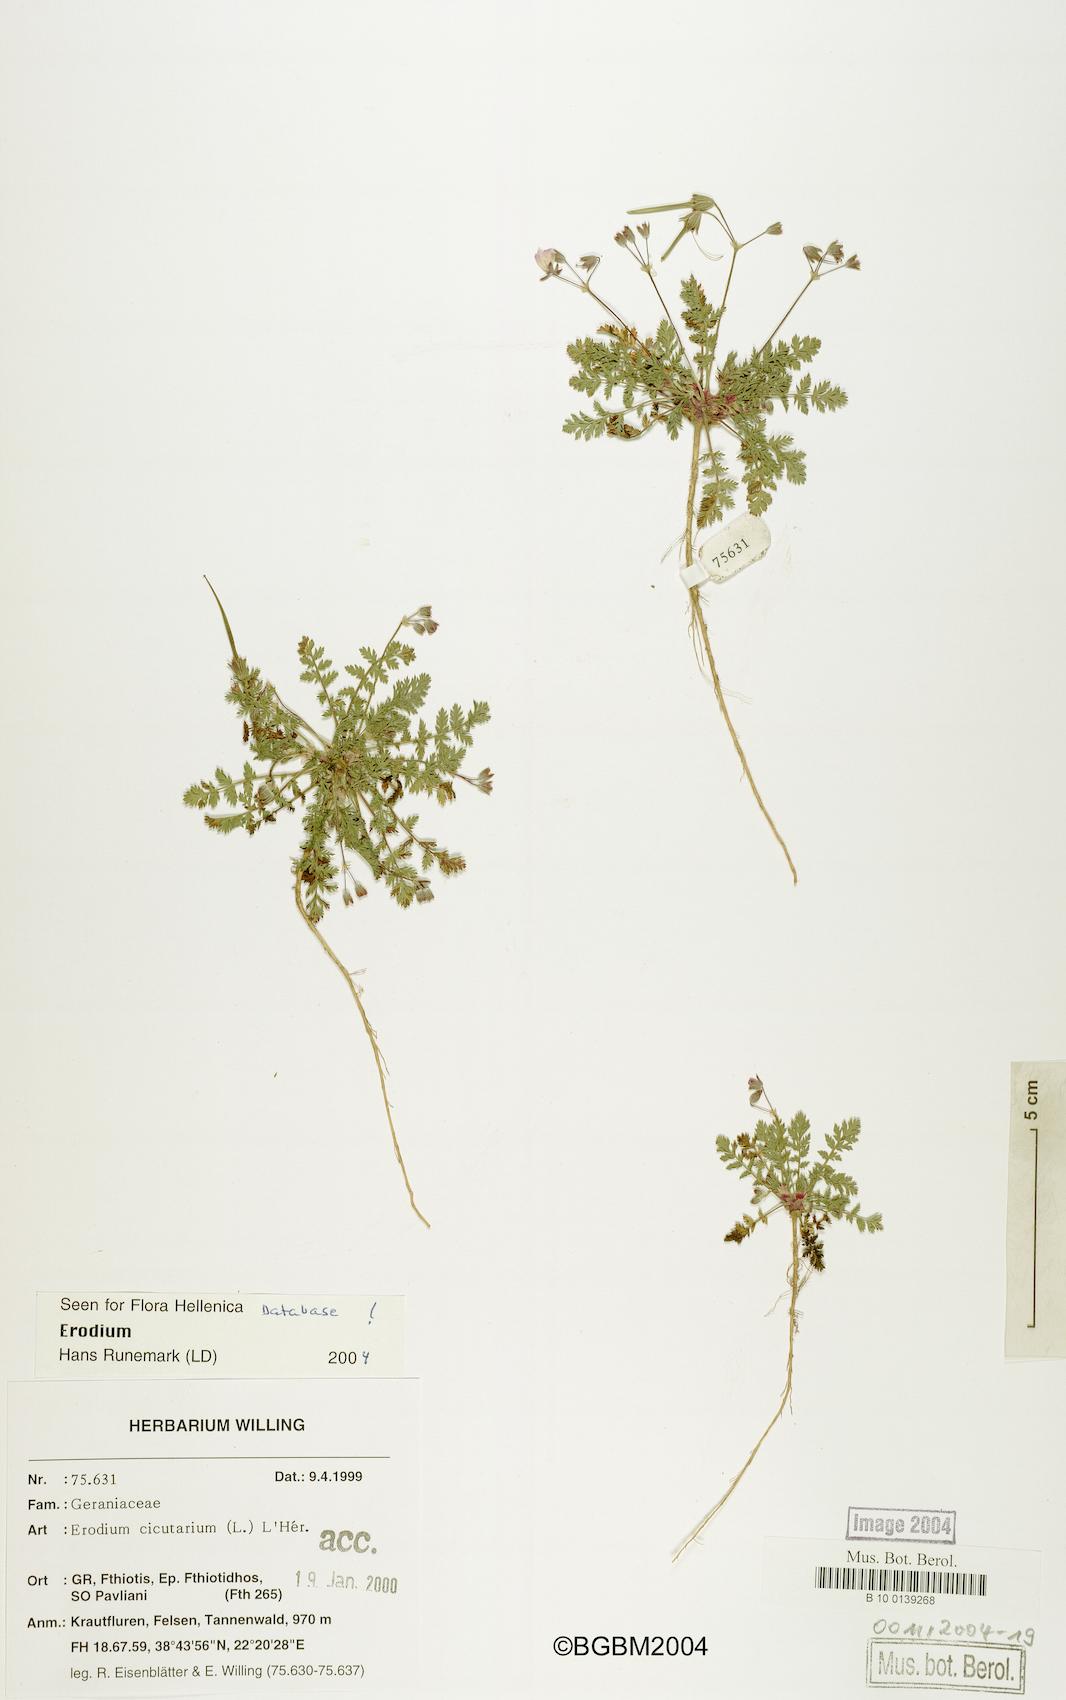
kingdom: Plantae
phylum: Tracheophyta
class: Magnoliopsida
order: Geraniales
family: Geraniaceae
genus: Erodium
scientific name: Erodium cicutarium
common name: Common stork's-bill
